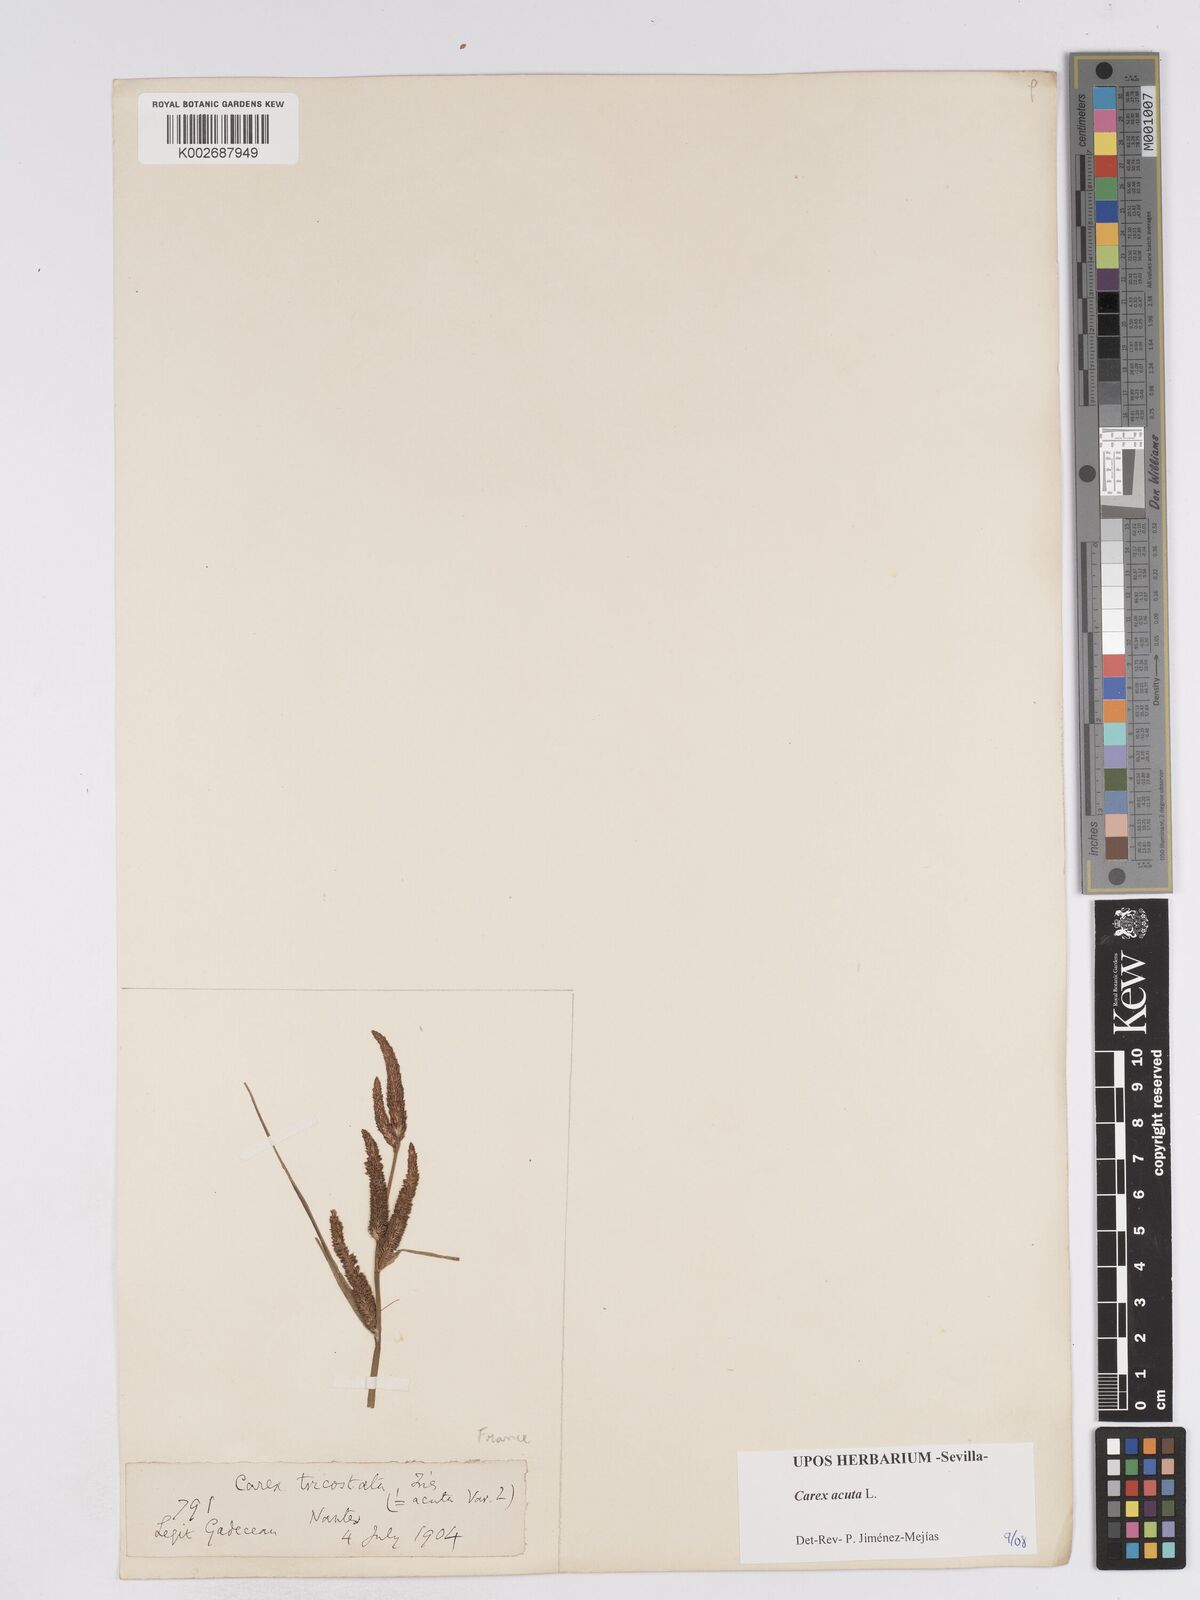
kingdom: Plantae
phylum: Tracheophyta
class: Liliopsida
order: Poales
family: Cyperaceae
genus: Carex
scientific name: Carex acuta
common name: Slender tufted-sedge
